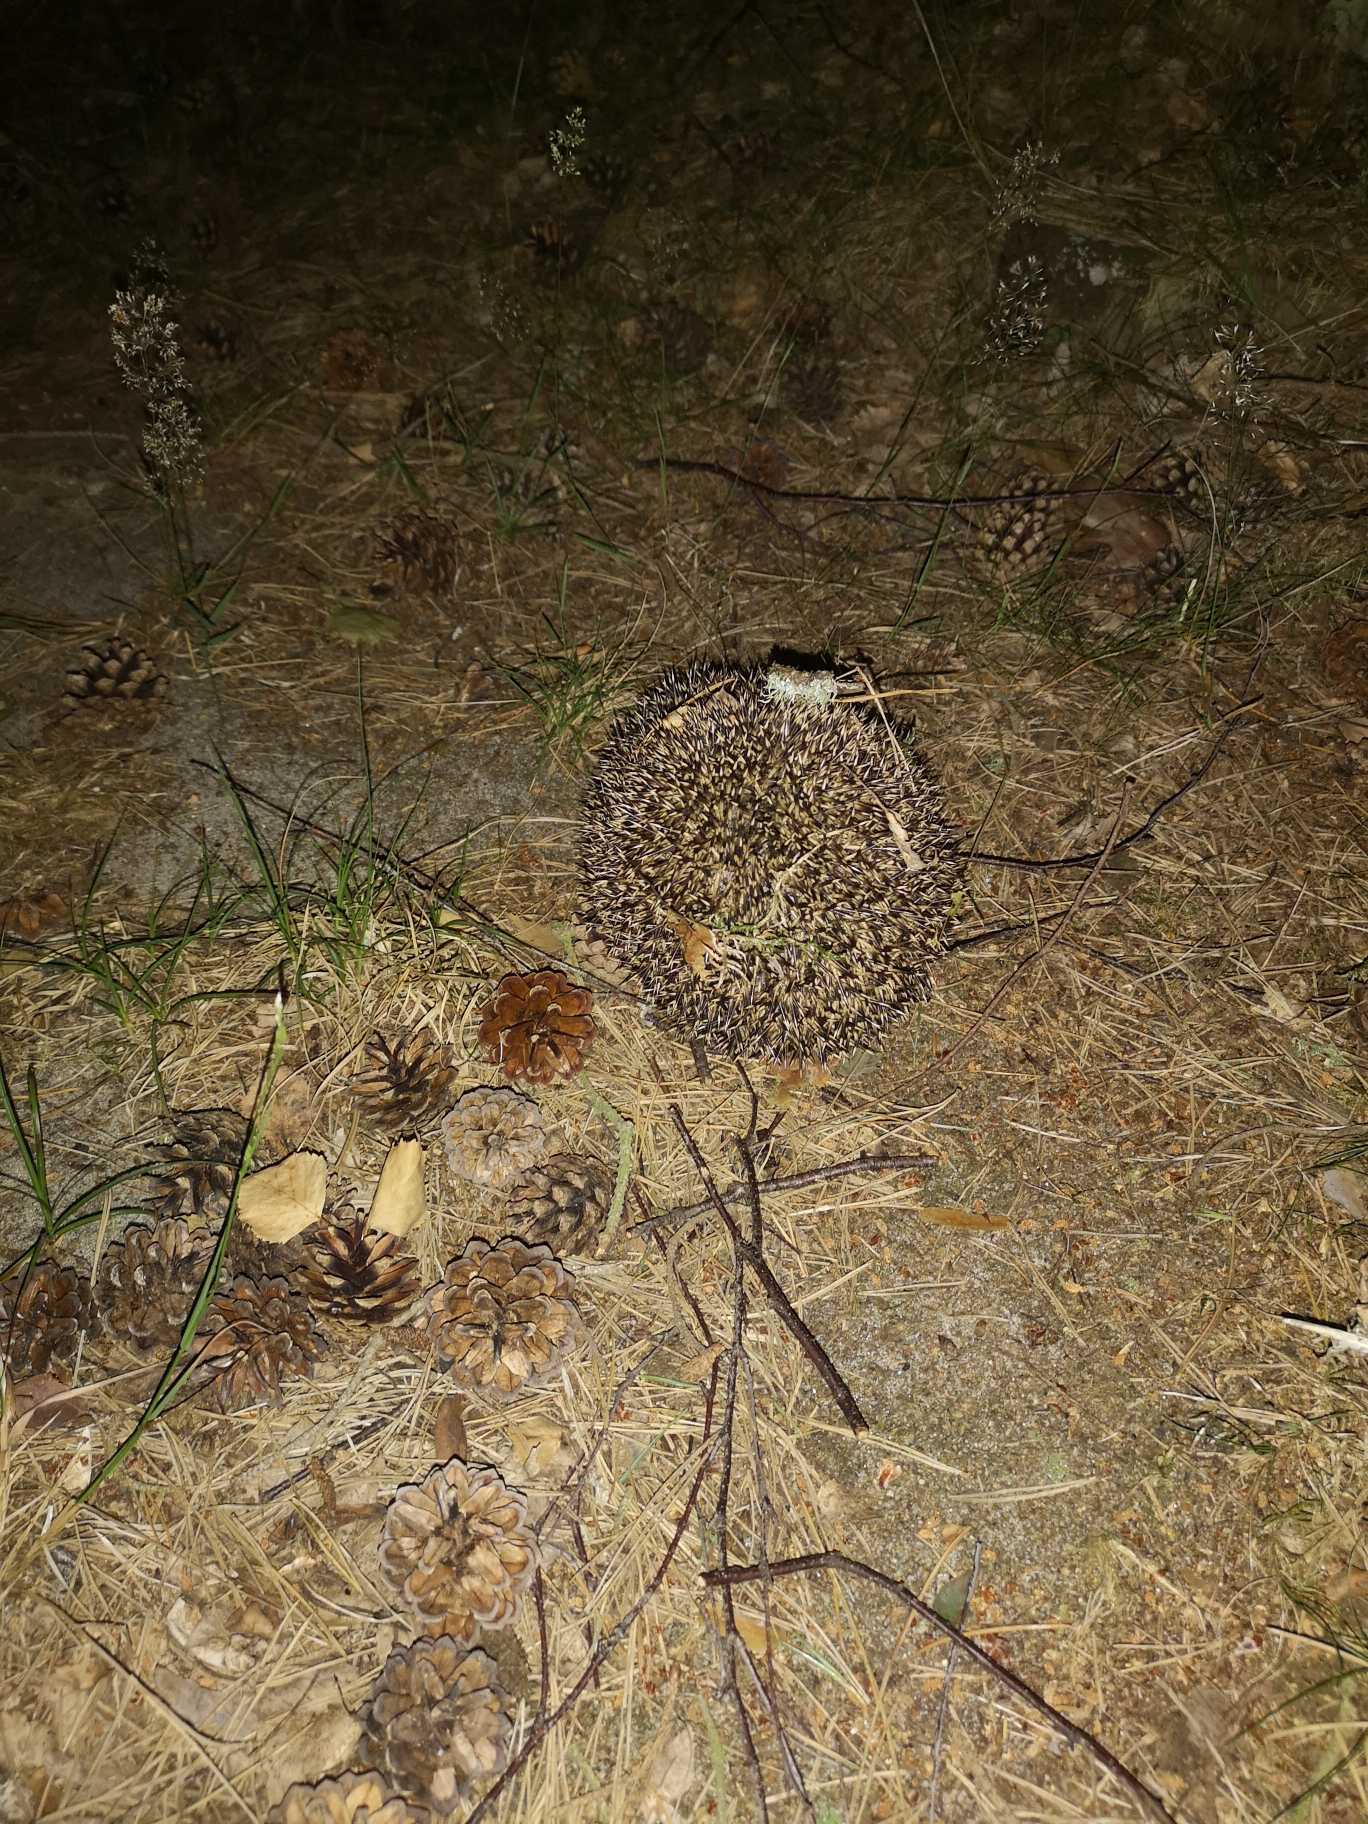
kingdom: Animalia
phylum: Chordata
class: Mammalia
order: Erinaceomorpha
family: Erinaceidae
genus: Erinaceus
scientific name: Erinaceus europaeus
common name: Pindsvin
